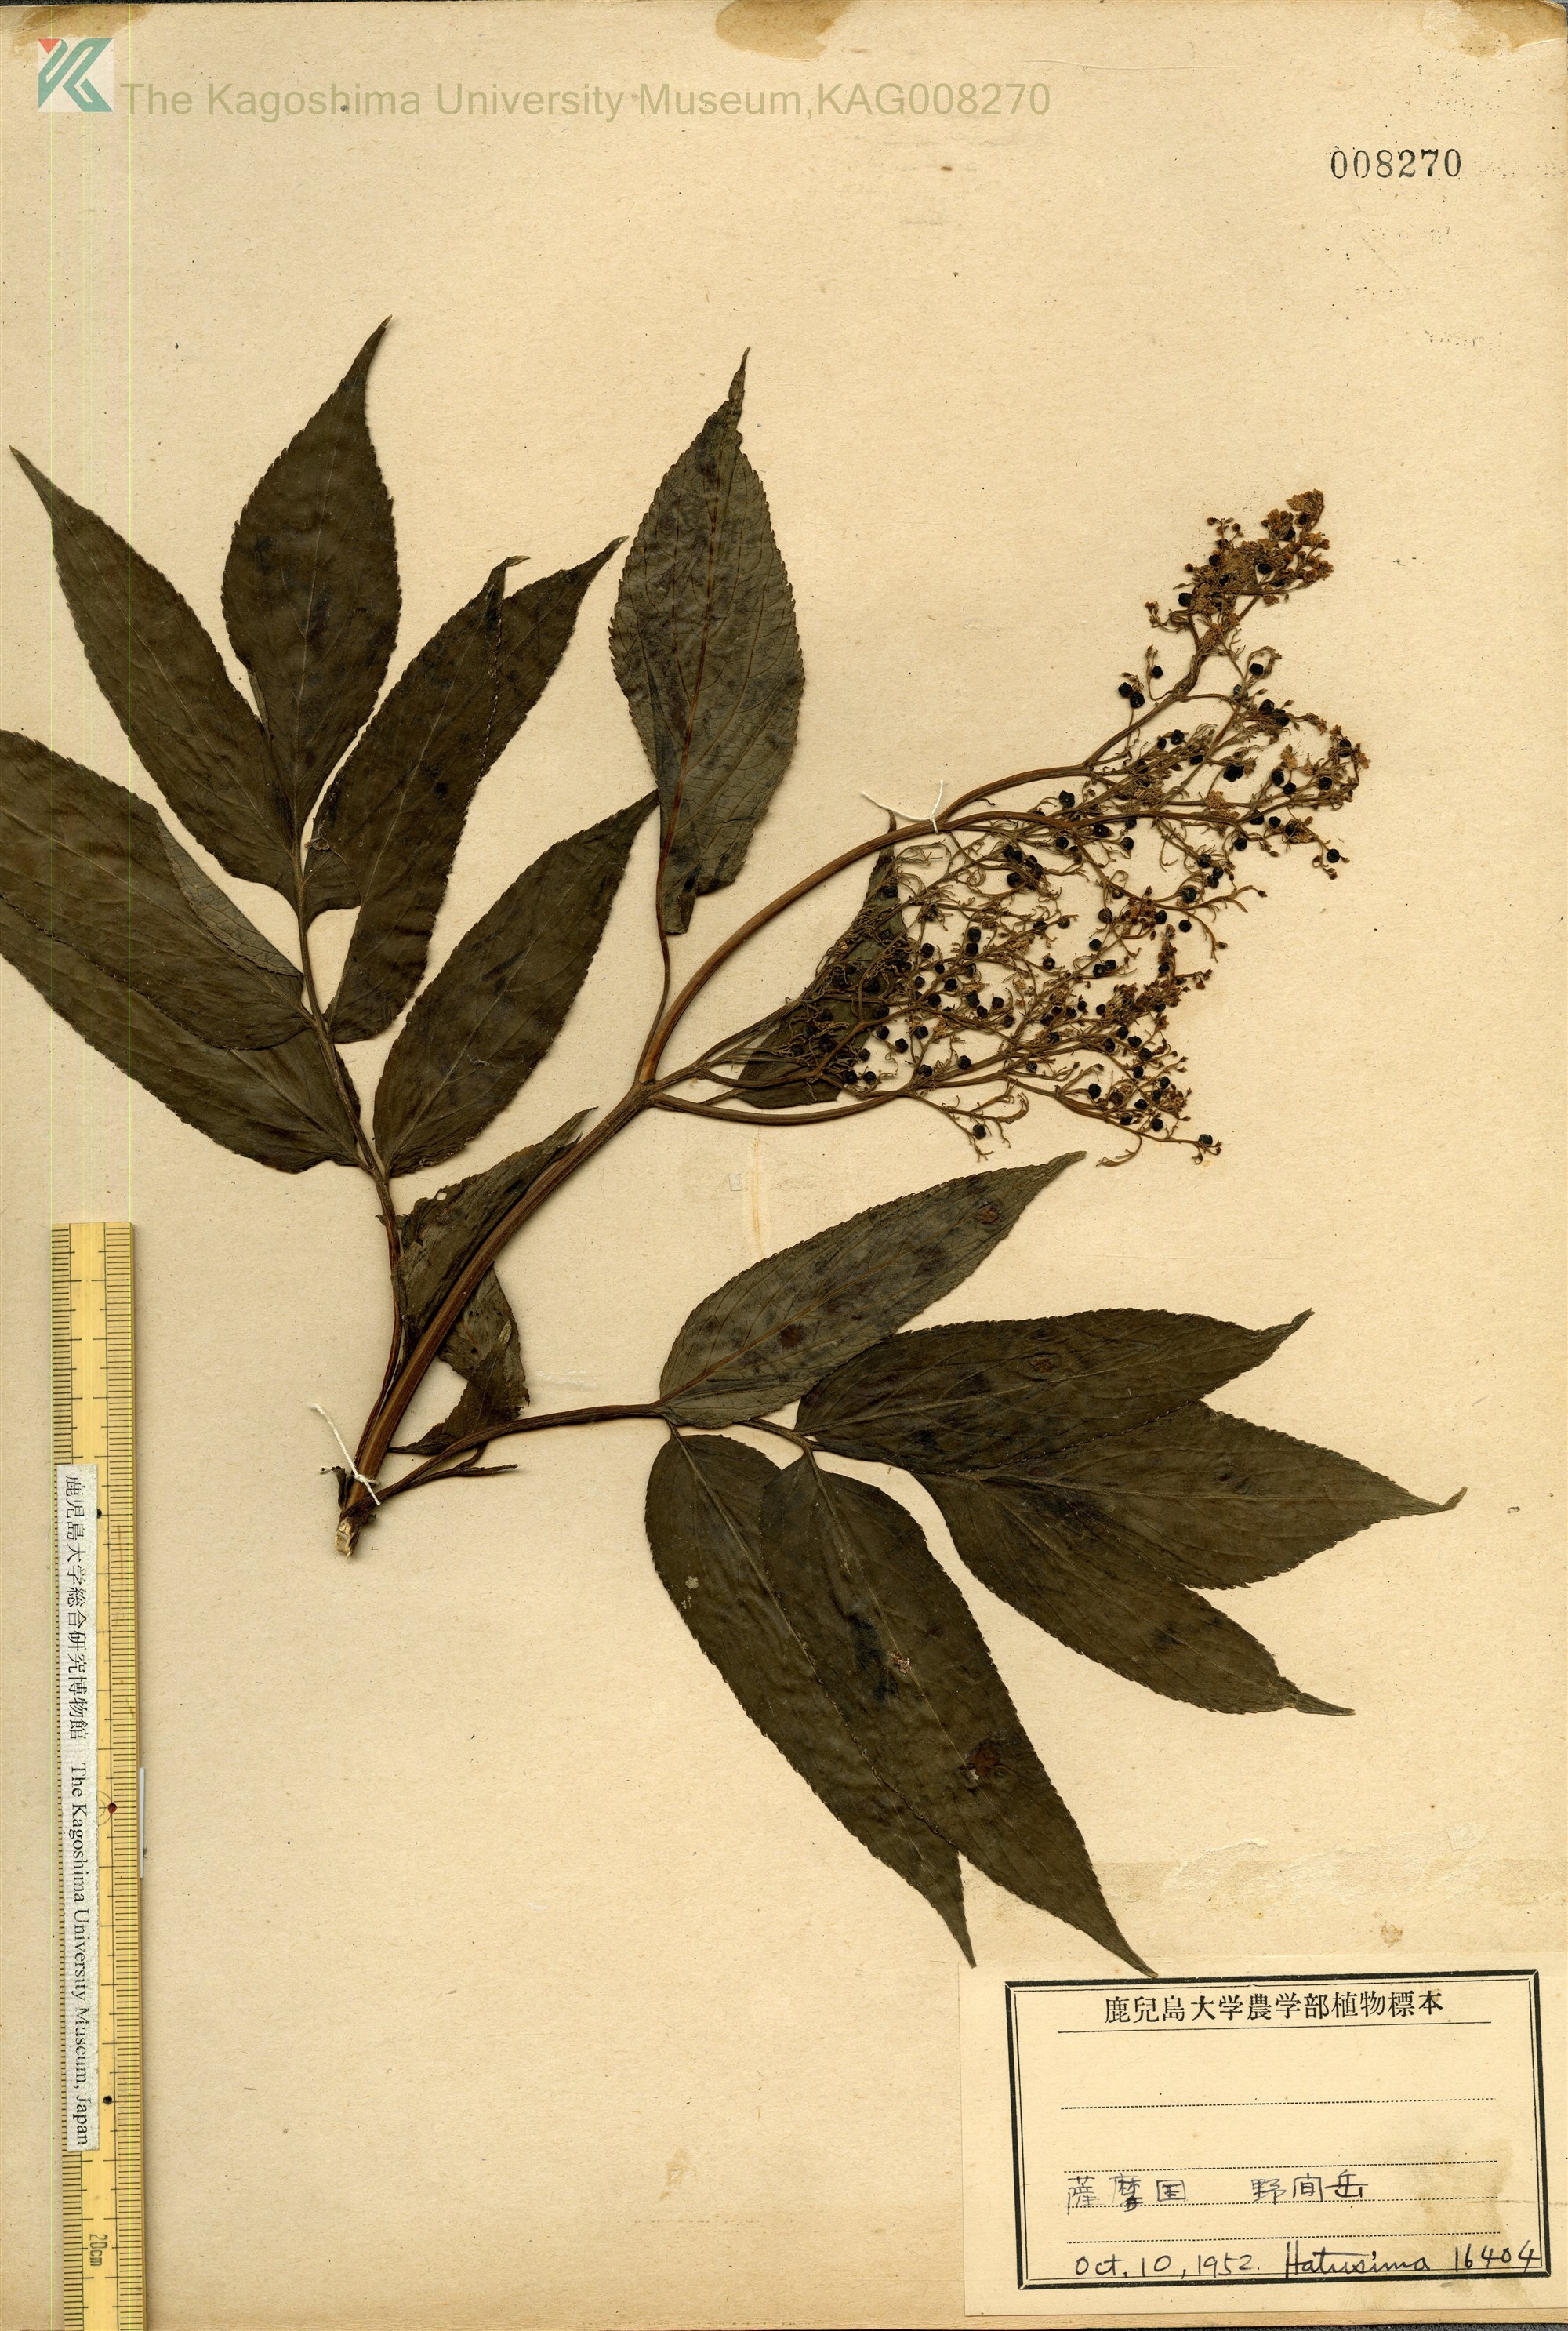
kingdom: Plantae
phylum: Tracheophyta
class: Magnoliopsida
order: Dipsacales
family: Viburnaceae
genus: Sambucus
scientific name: Sambucus javanica
